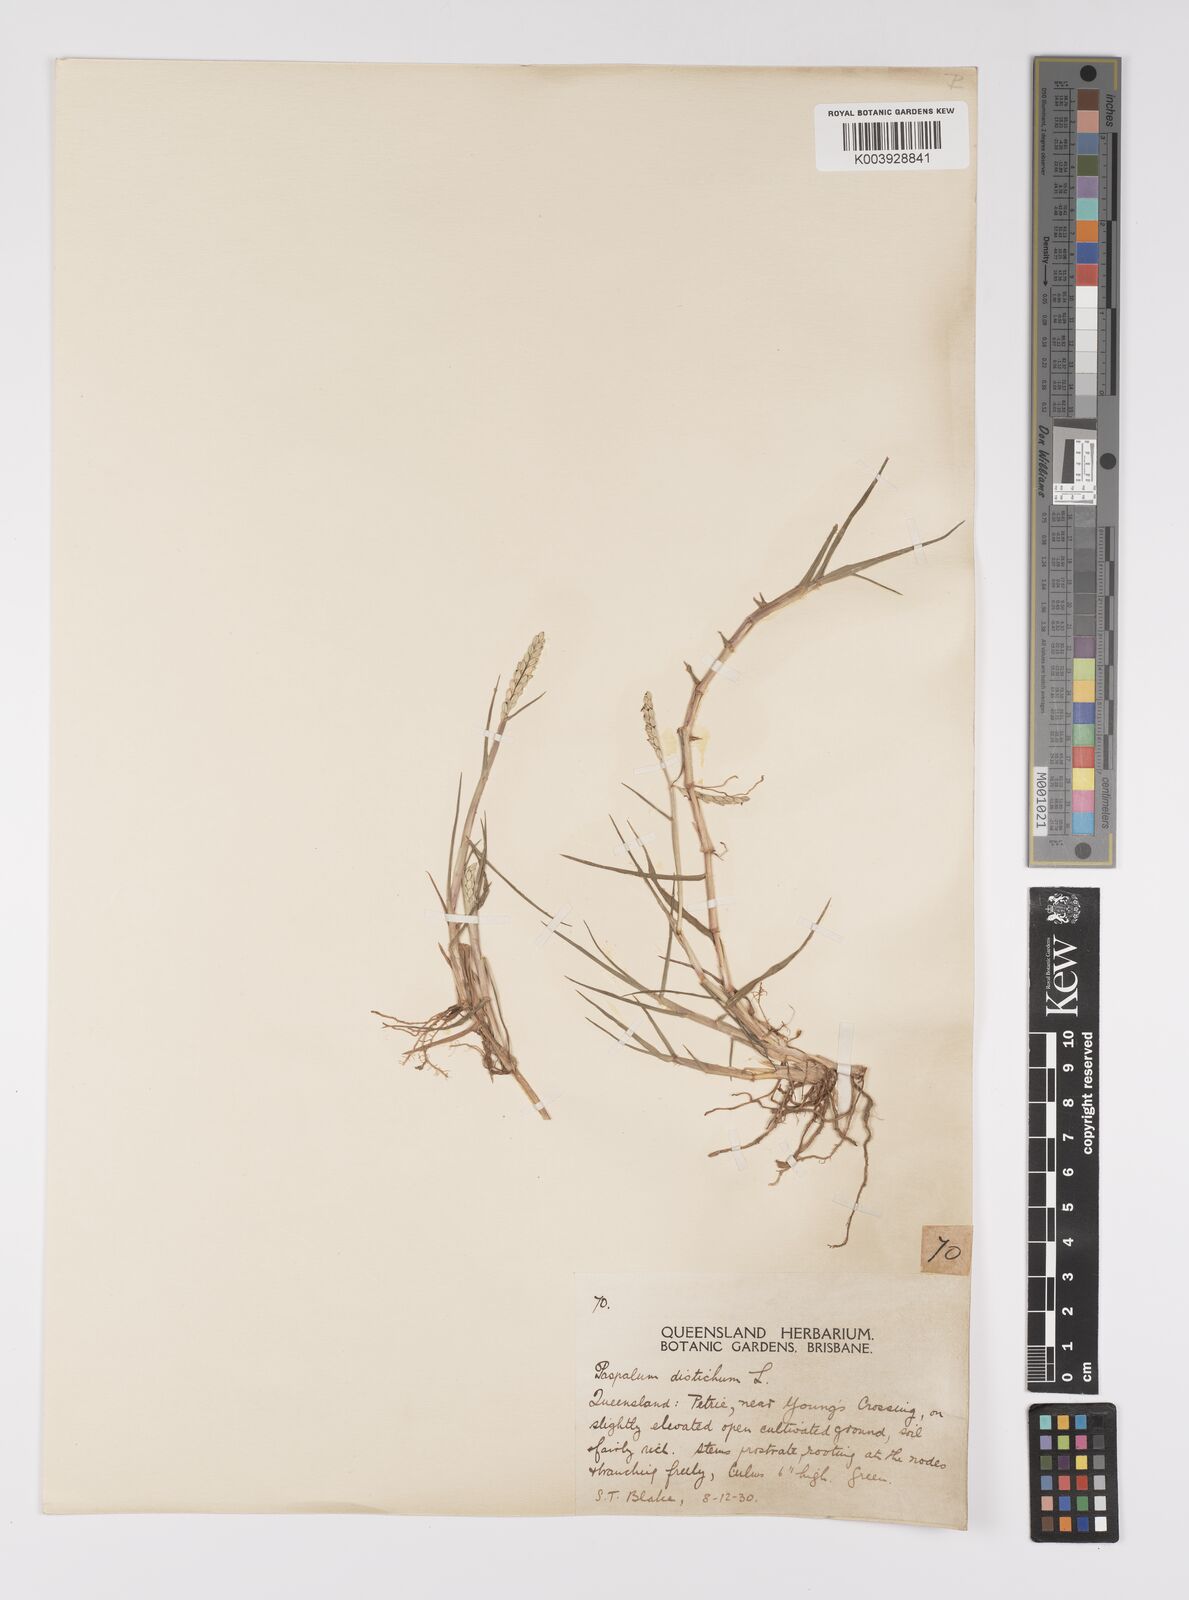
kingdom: Plantae
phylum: Tracheophyta
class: Liliopsida
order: Poales
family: Poaceae
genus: Paspalum
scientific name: Paspalum distichum
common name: Knotgrass
